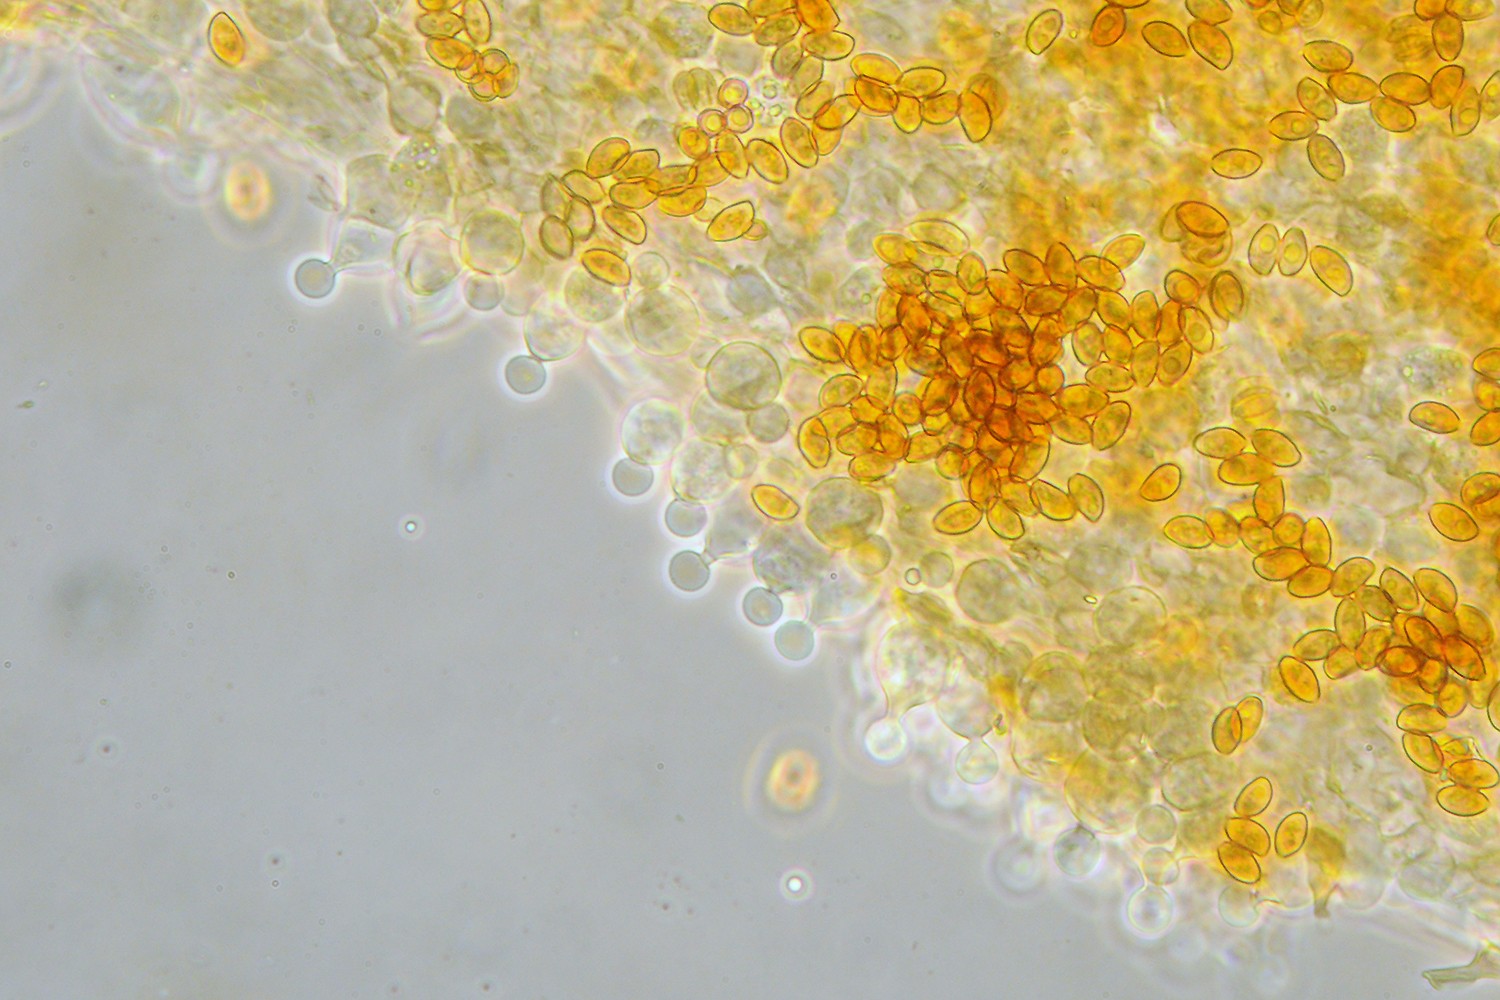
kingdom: Fungi
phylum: Basidiomycota
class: Agaricomycetes
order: Agaricales
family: Bolbitiaceae
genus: Conocybe
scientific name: Conocybe echinata
